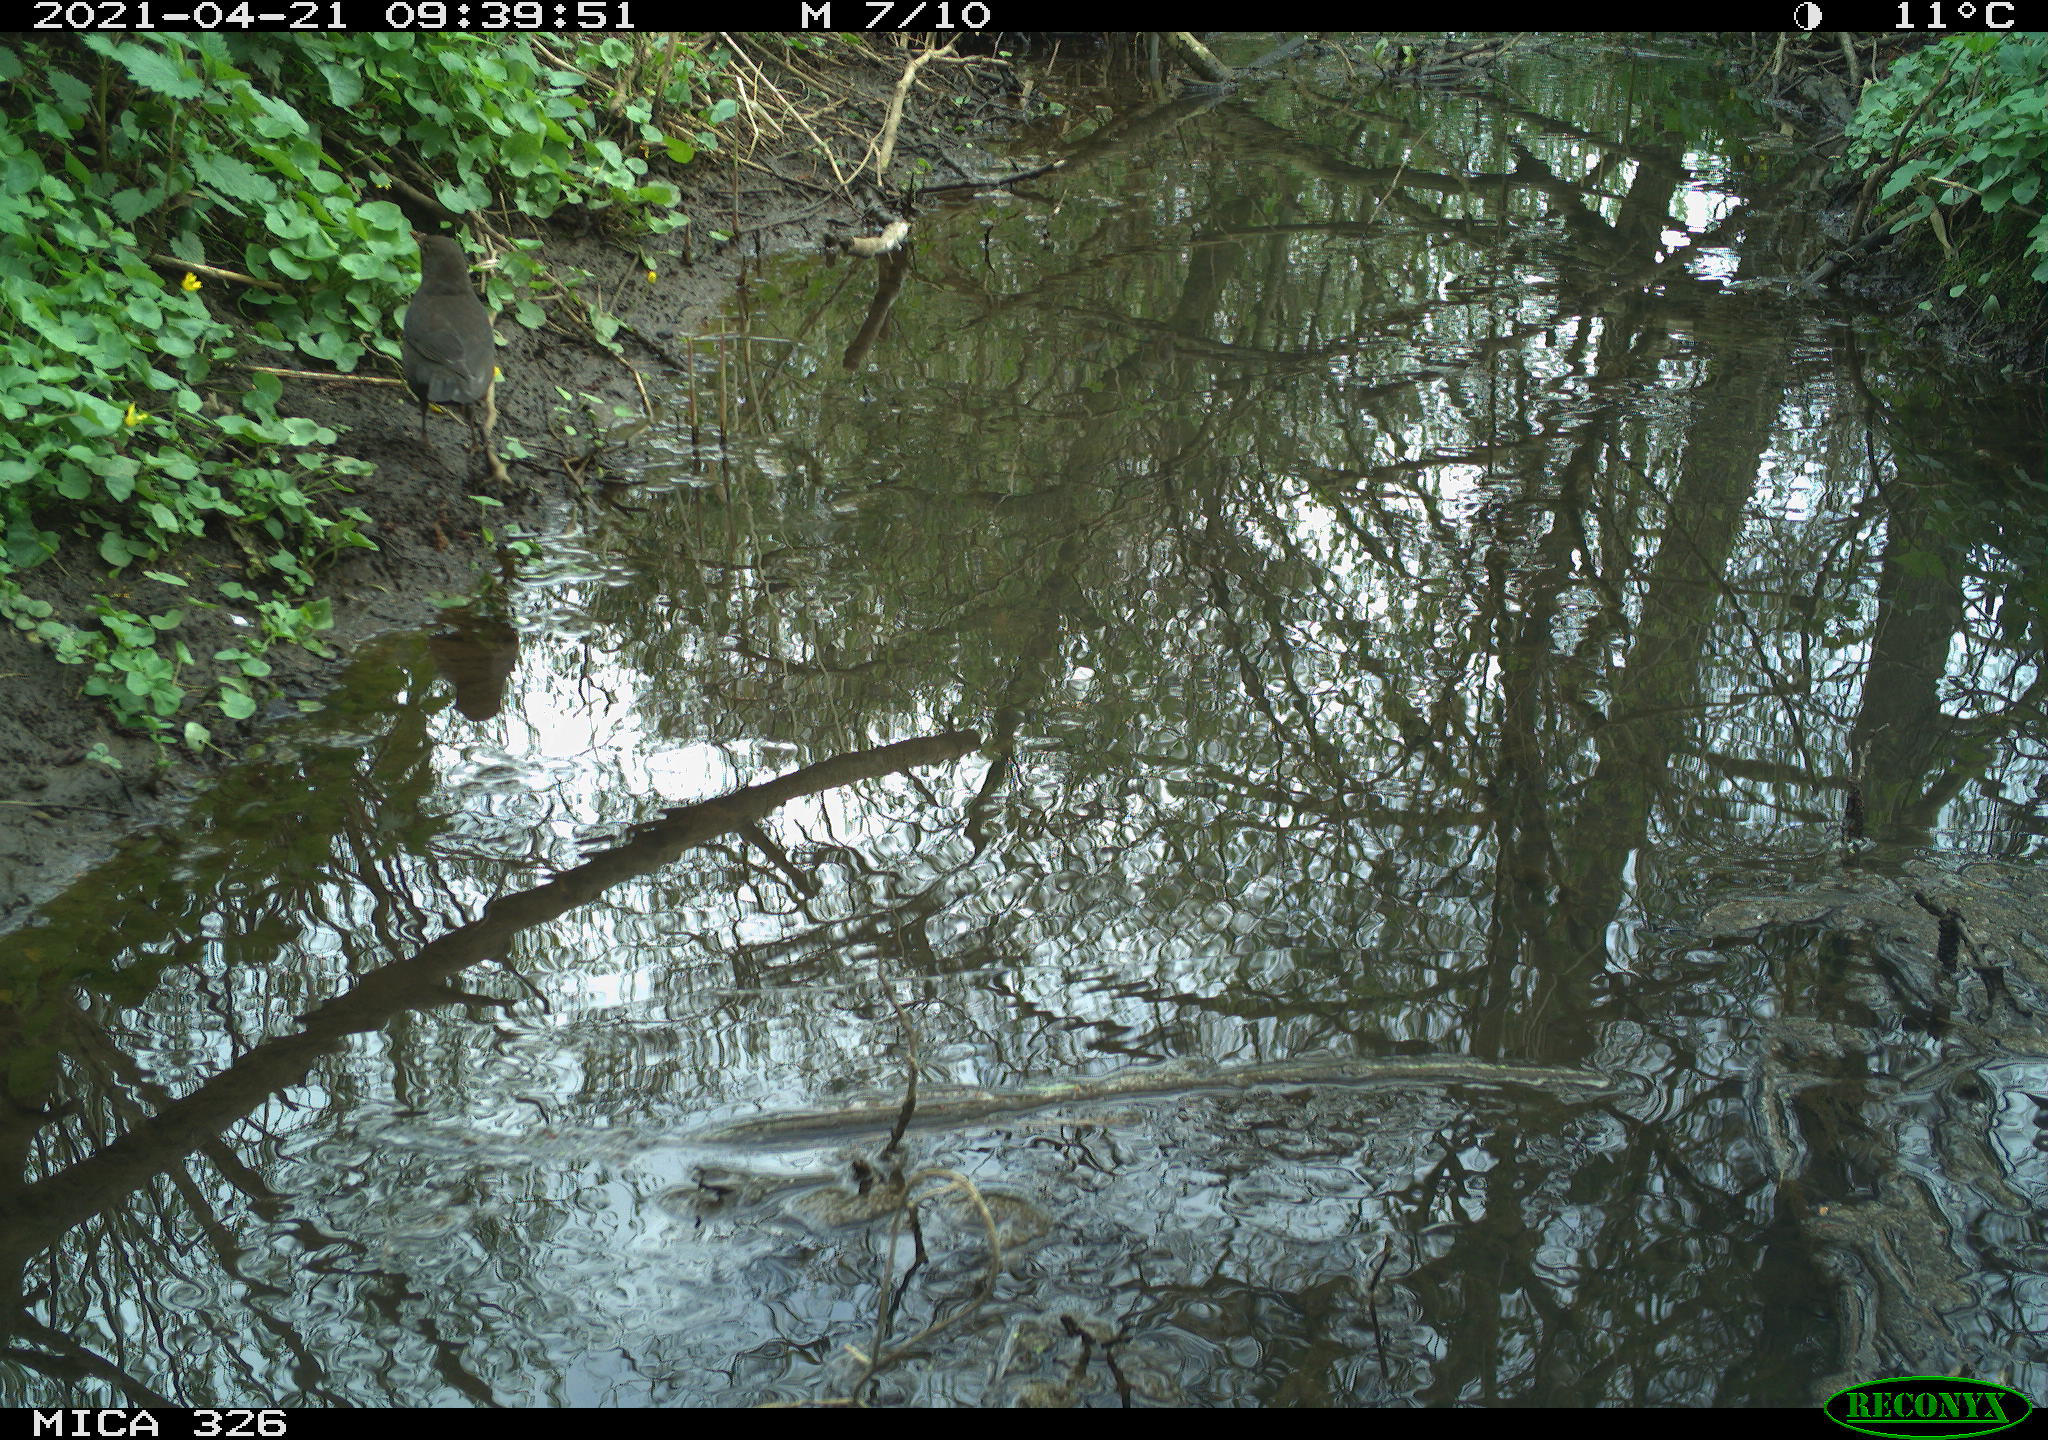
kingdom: Animalia
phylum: Chordata
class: Aves
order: Passeriformes
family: Turdidae
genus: Turdus
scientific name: Turdus merula
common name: Common blackbird
